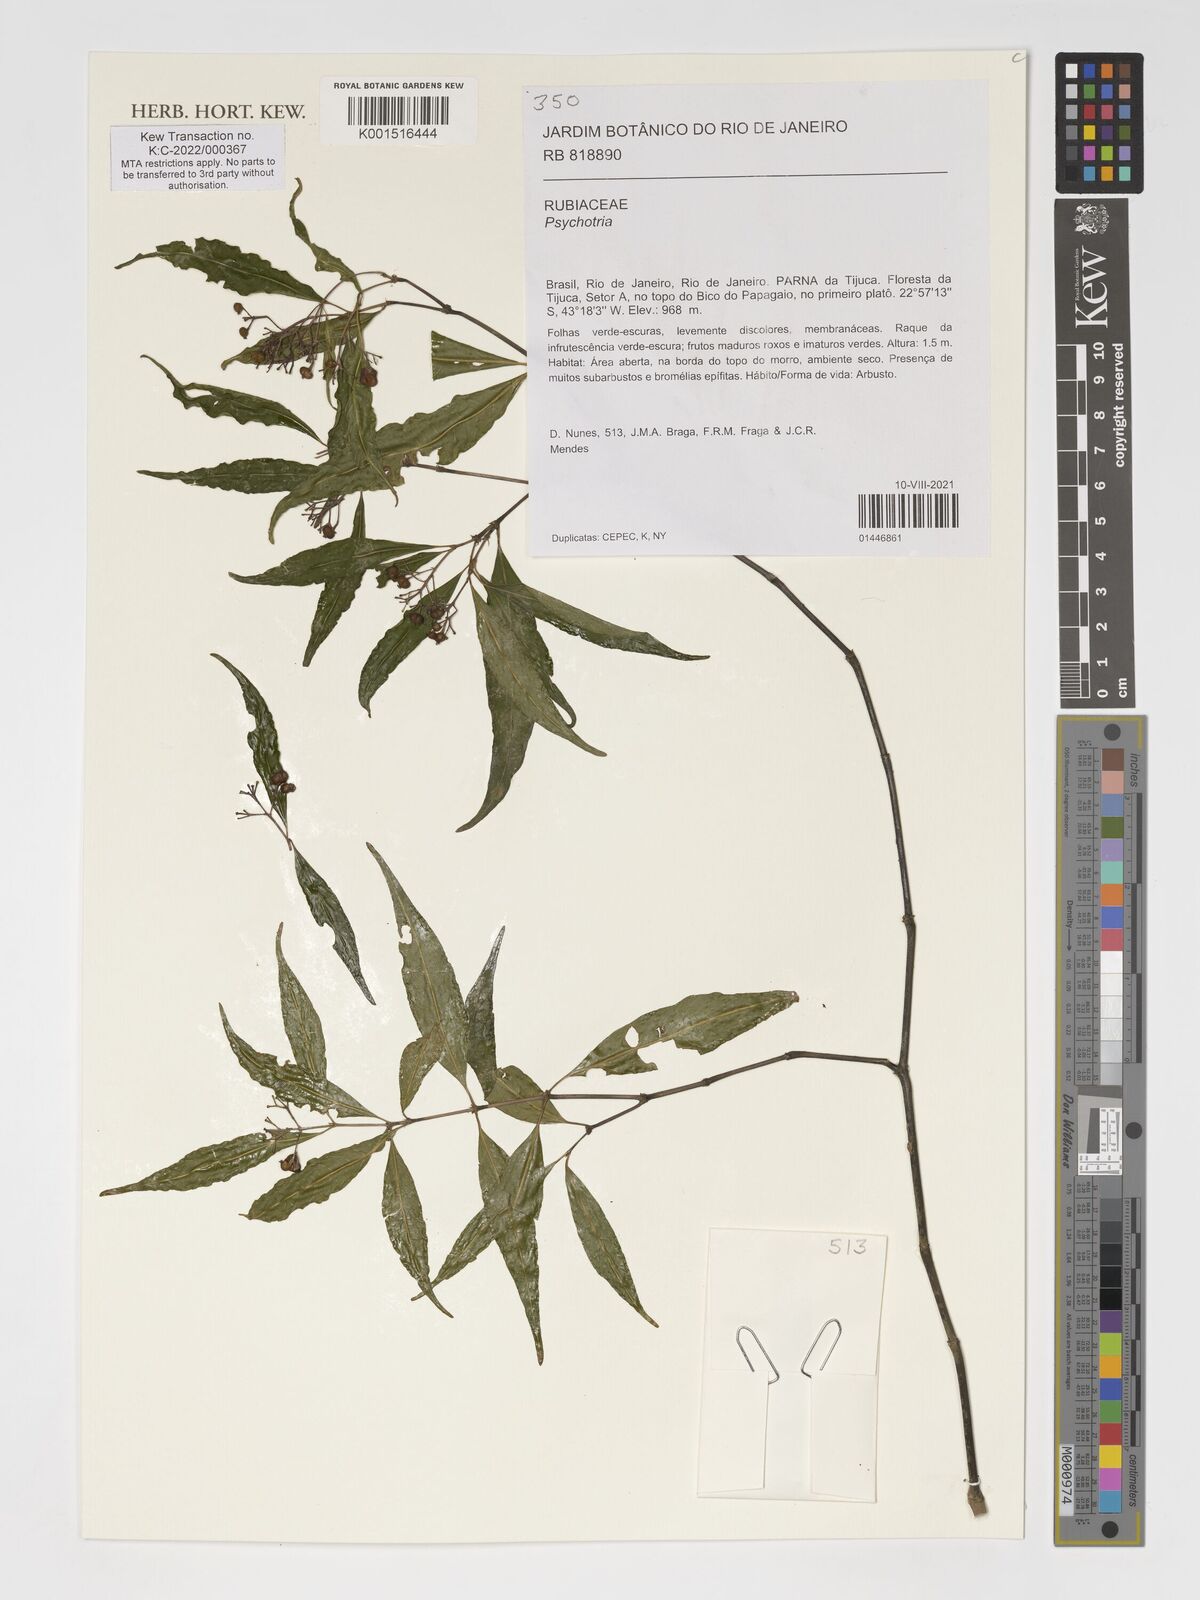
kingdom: Plantae
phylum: Tracheophyta
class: Magnoliopsida
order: Gentianales
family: Rubiaceae
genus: Psychotria
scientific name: Psychotria
